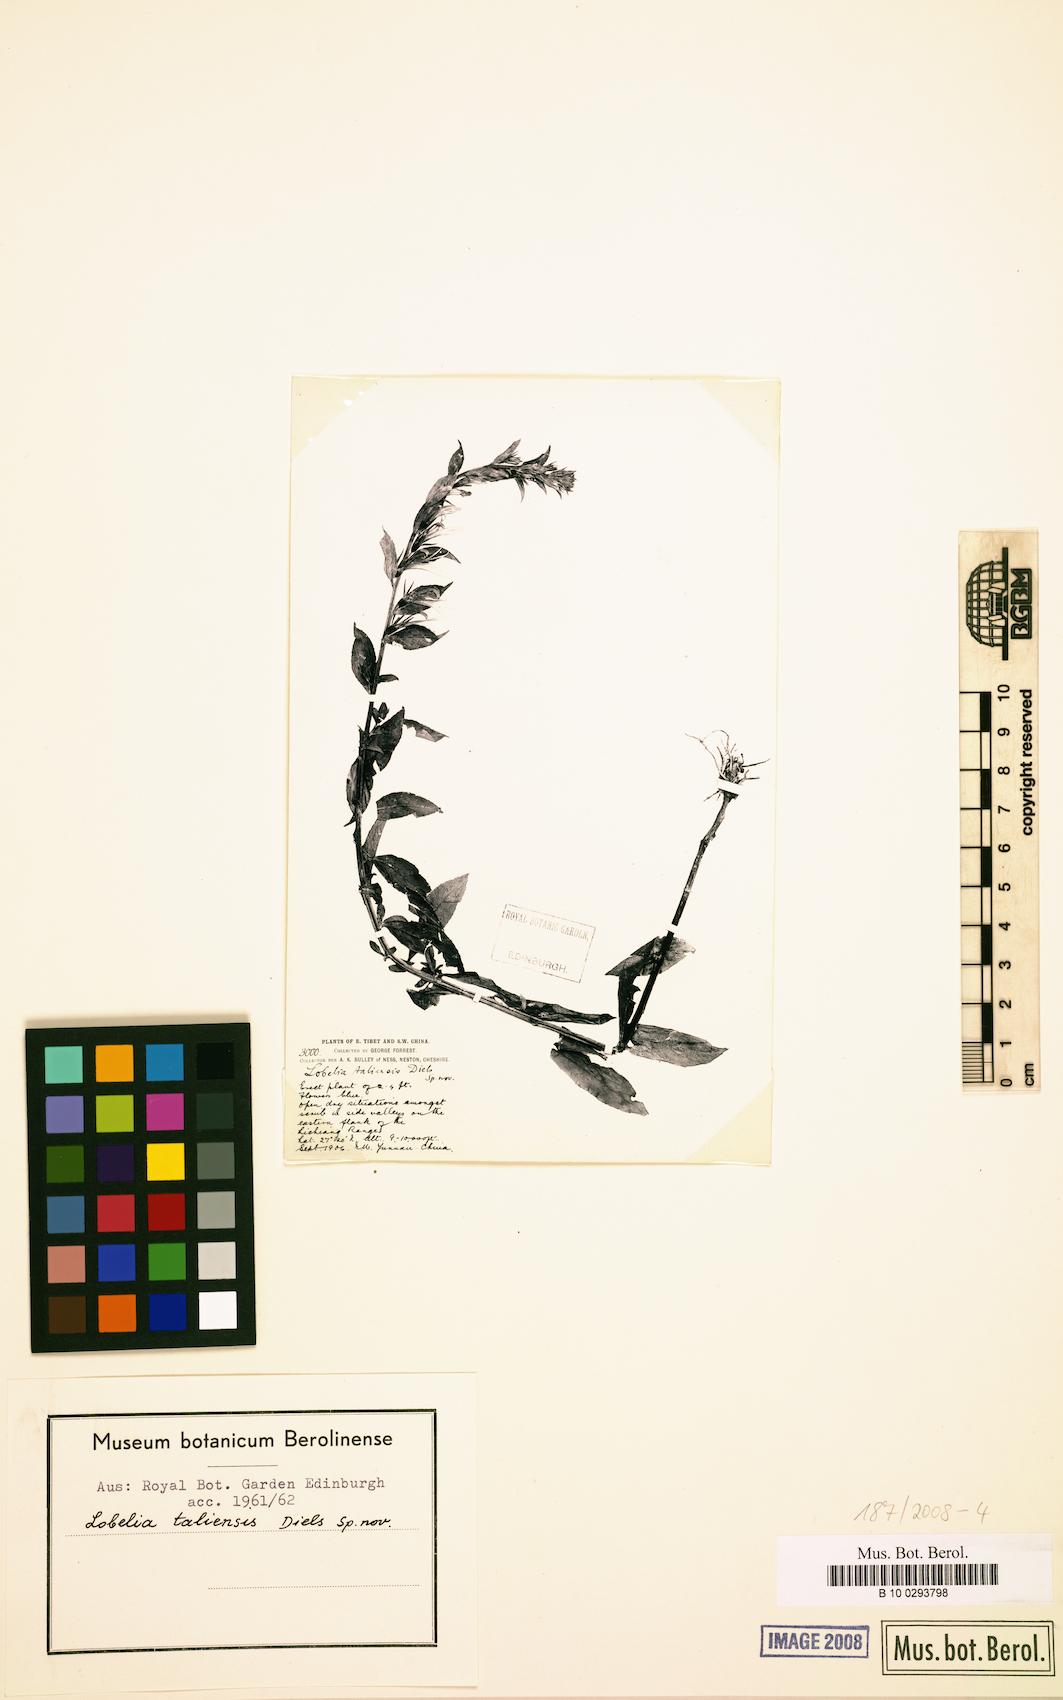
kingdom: Plantae
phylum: Tracheophyta
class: Magnoliopsida
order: Asterales
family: Campanulaceae
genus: Lobelia
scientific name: Lobelia taliensis
